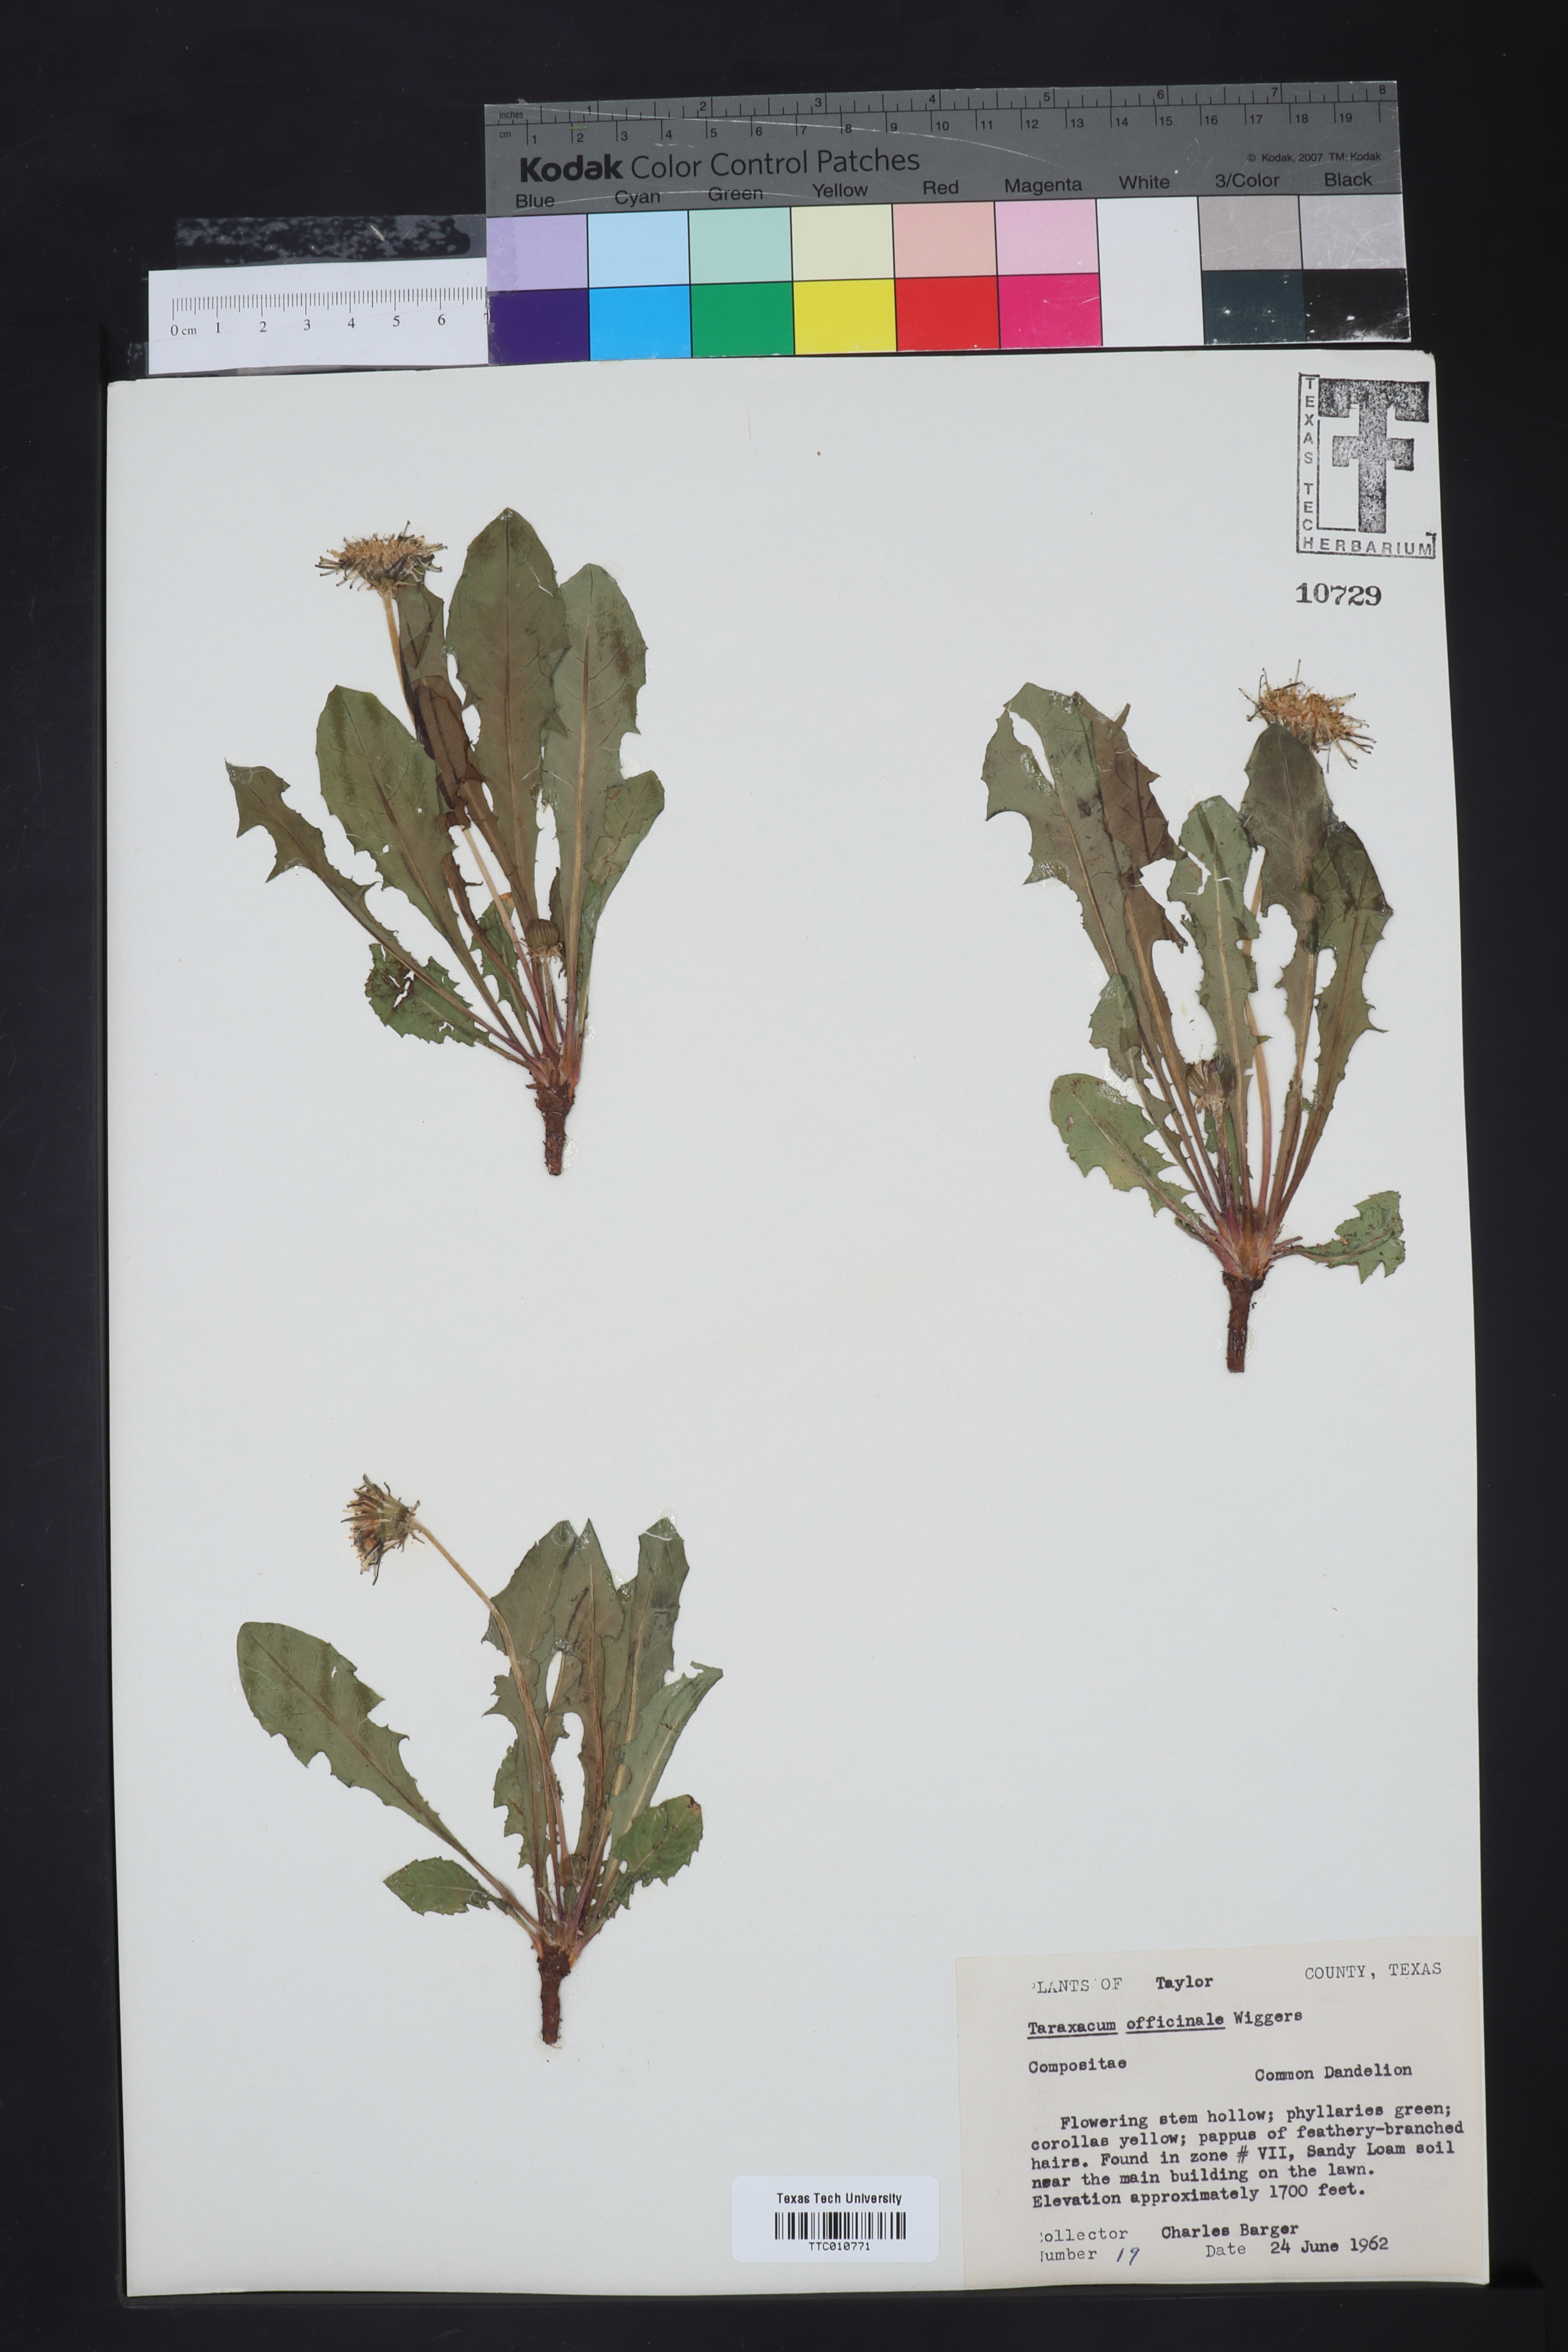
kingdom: Plantae
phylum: Tracheophyta
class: Magnoliopsida
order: Asterales
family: Asteraceae
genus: Taraxacum
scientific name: Taraxacum officinale
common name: Common dandelion
